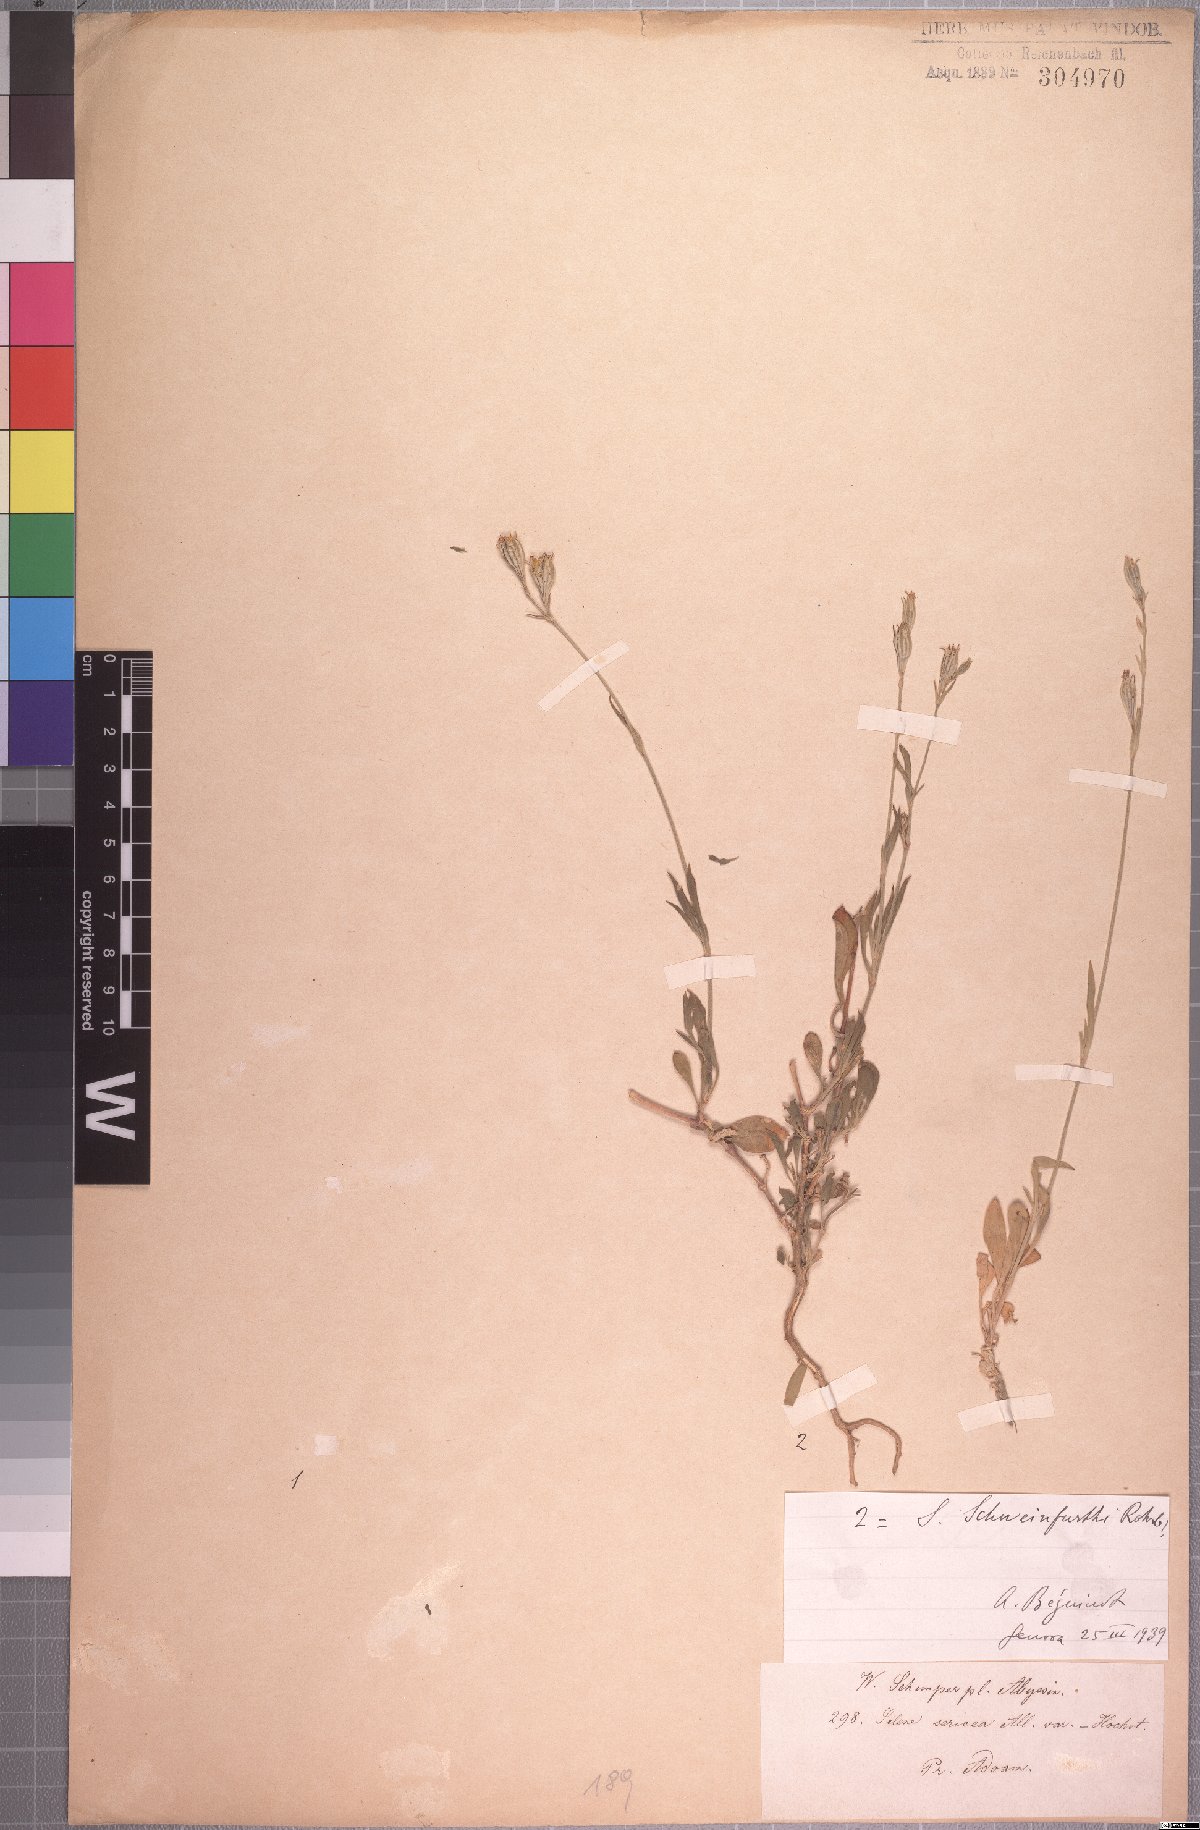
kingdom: Plantae
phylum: Tracheophyta
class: Magnoliopsida
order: Caryophyllales
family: Caryophyllaceae
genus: Silene
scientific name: Silene burchellii
